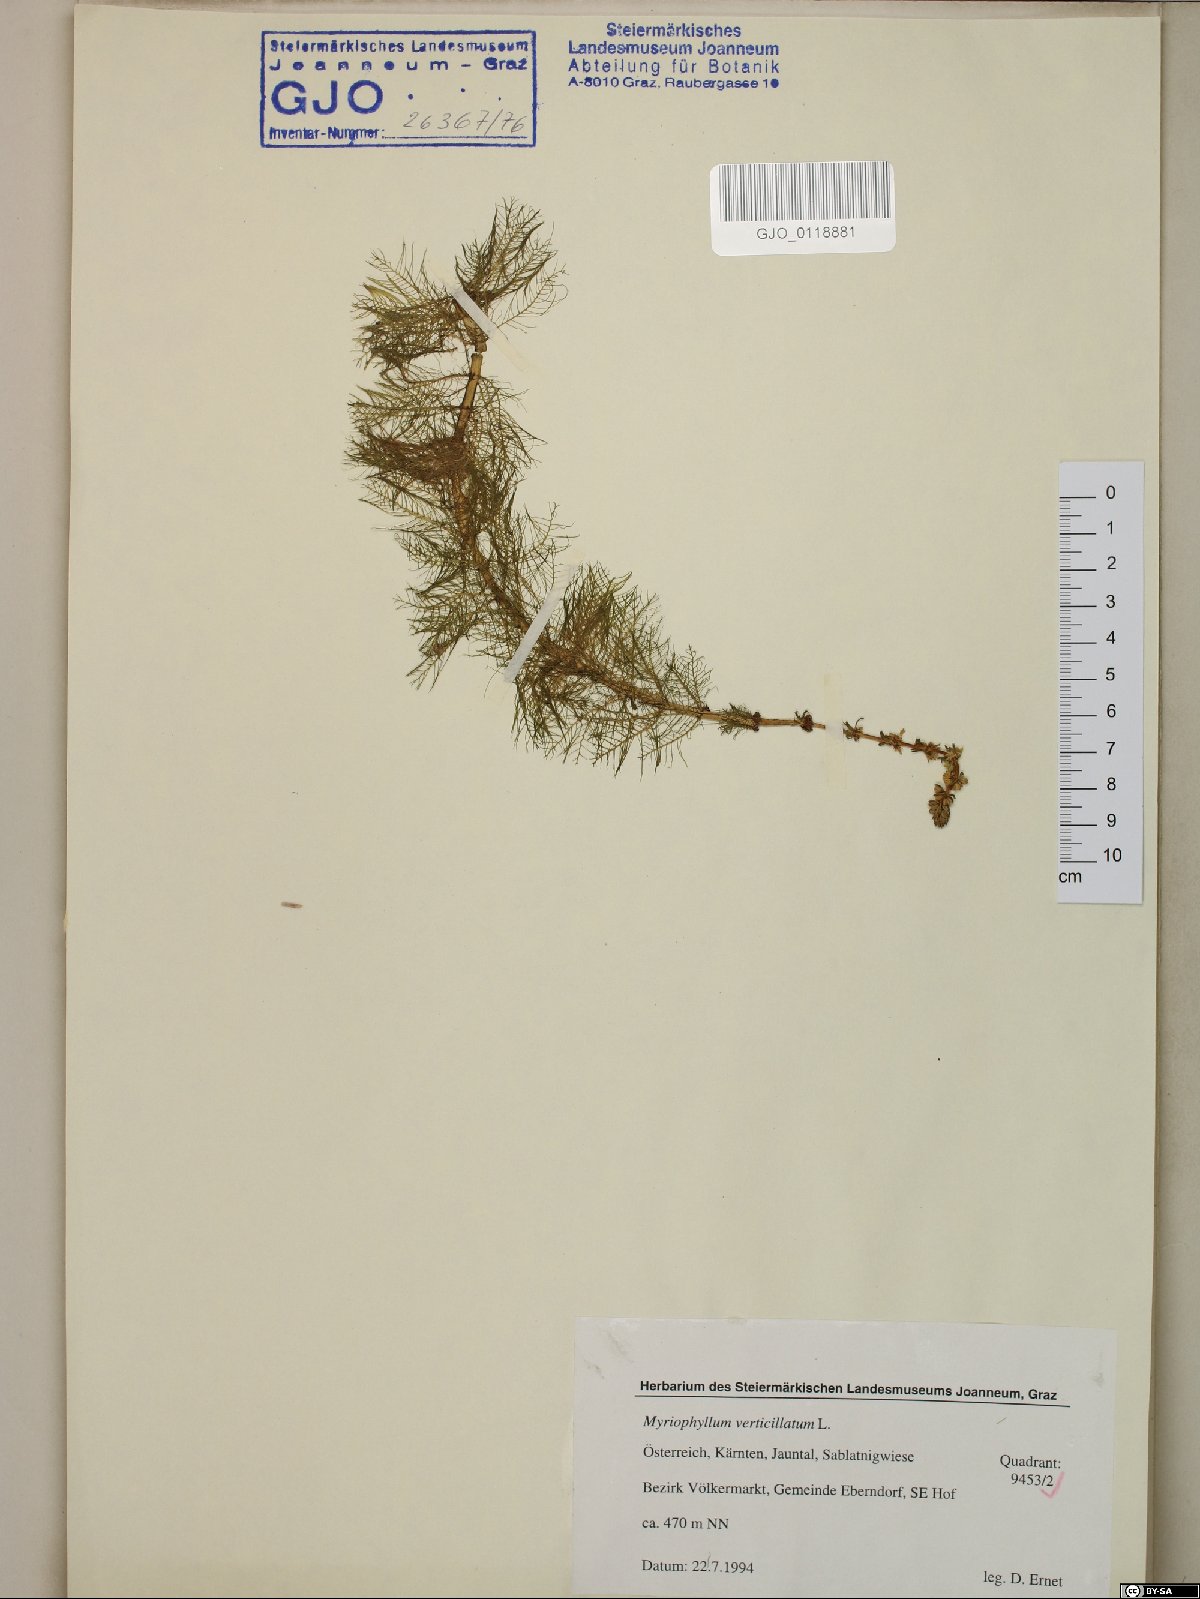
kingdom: Plantae
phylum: Tracheophyta
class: Magnoliopsida
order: Saxifragales
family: Haloragaceae
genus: Myriophyllum
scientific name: Myriophyllum verticillatum
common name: Whorled water-milfoil
